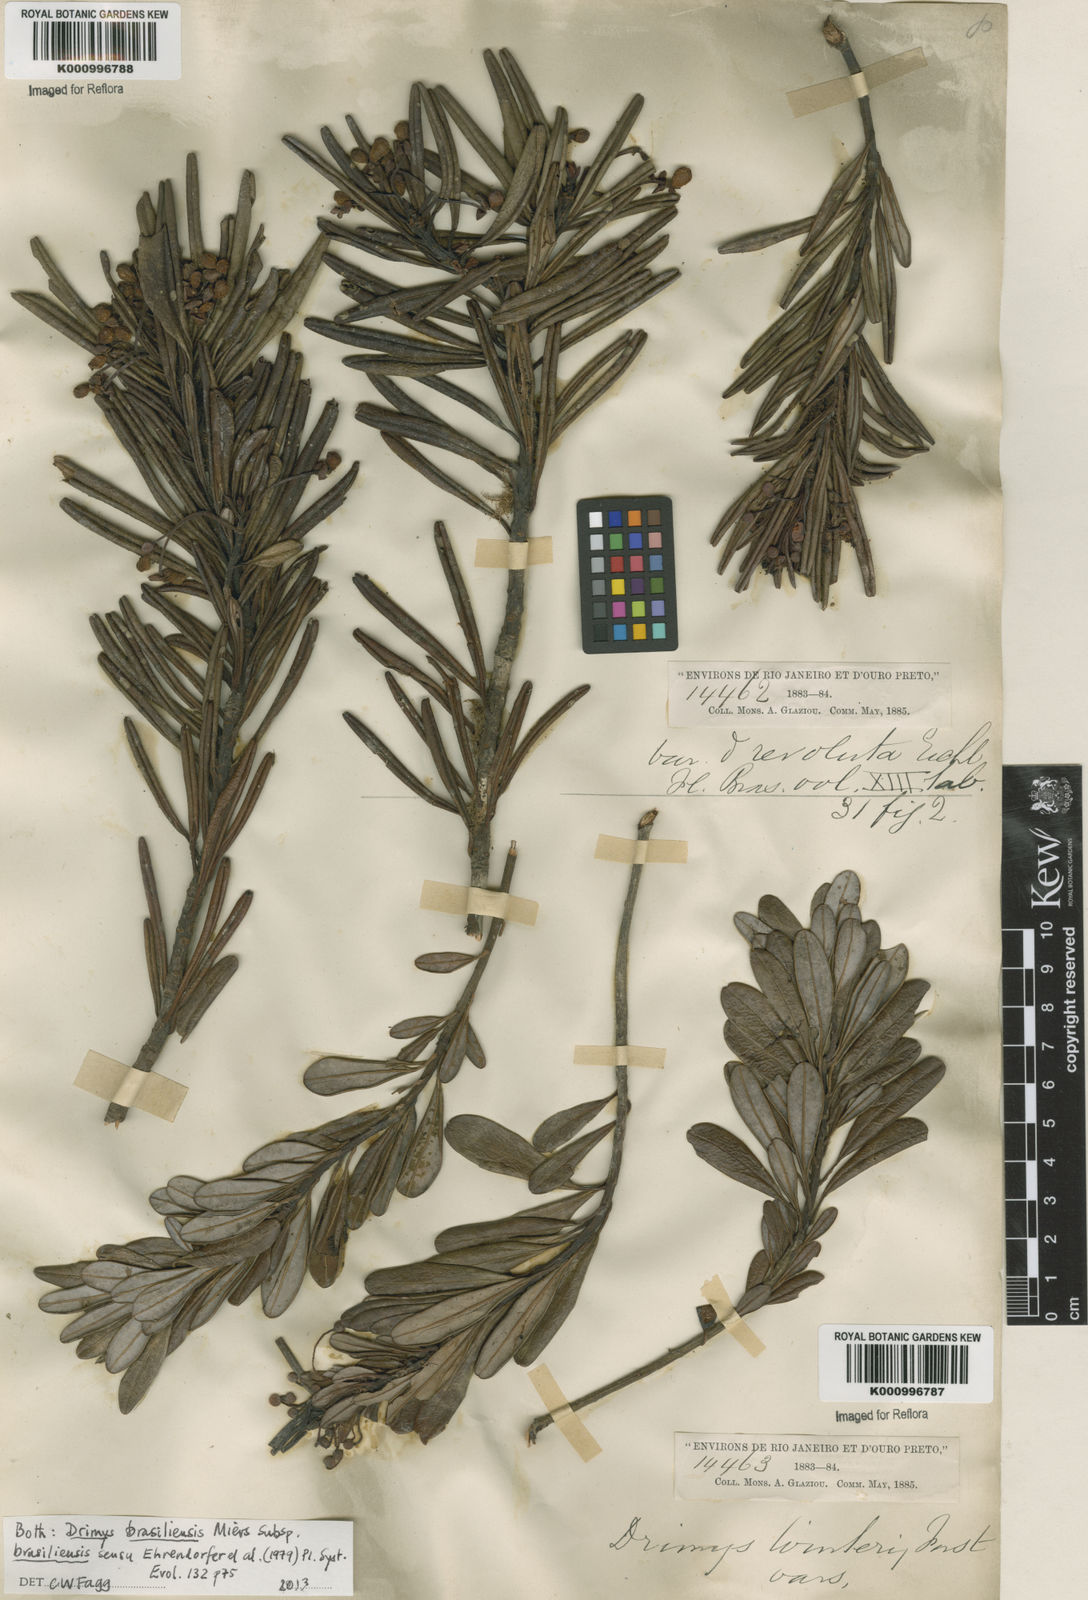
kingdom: Plantae
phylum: Tracheophyta
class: Magnoliopsida
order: Canellales
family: Winteraceae
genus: Drimys
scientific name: Drimys brasiliensis
